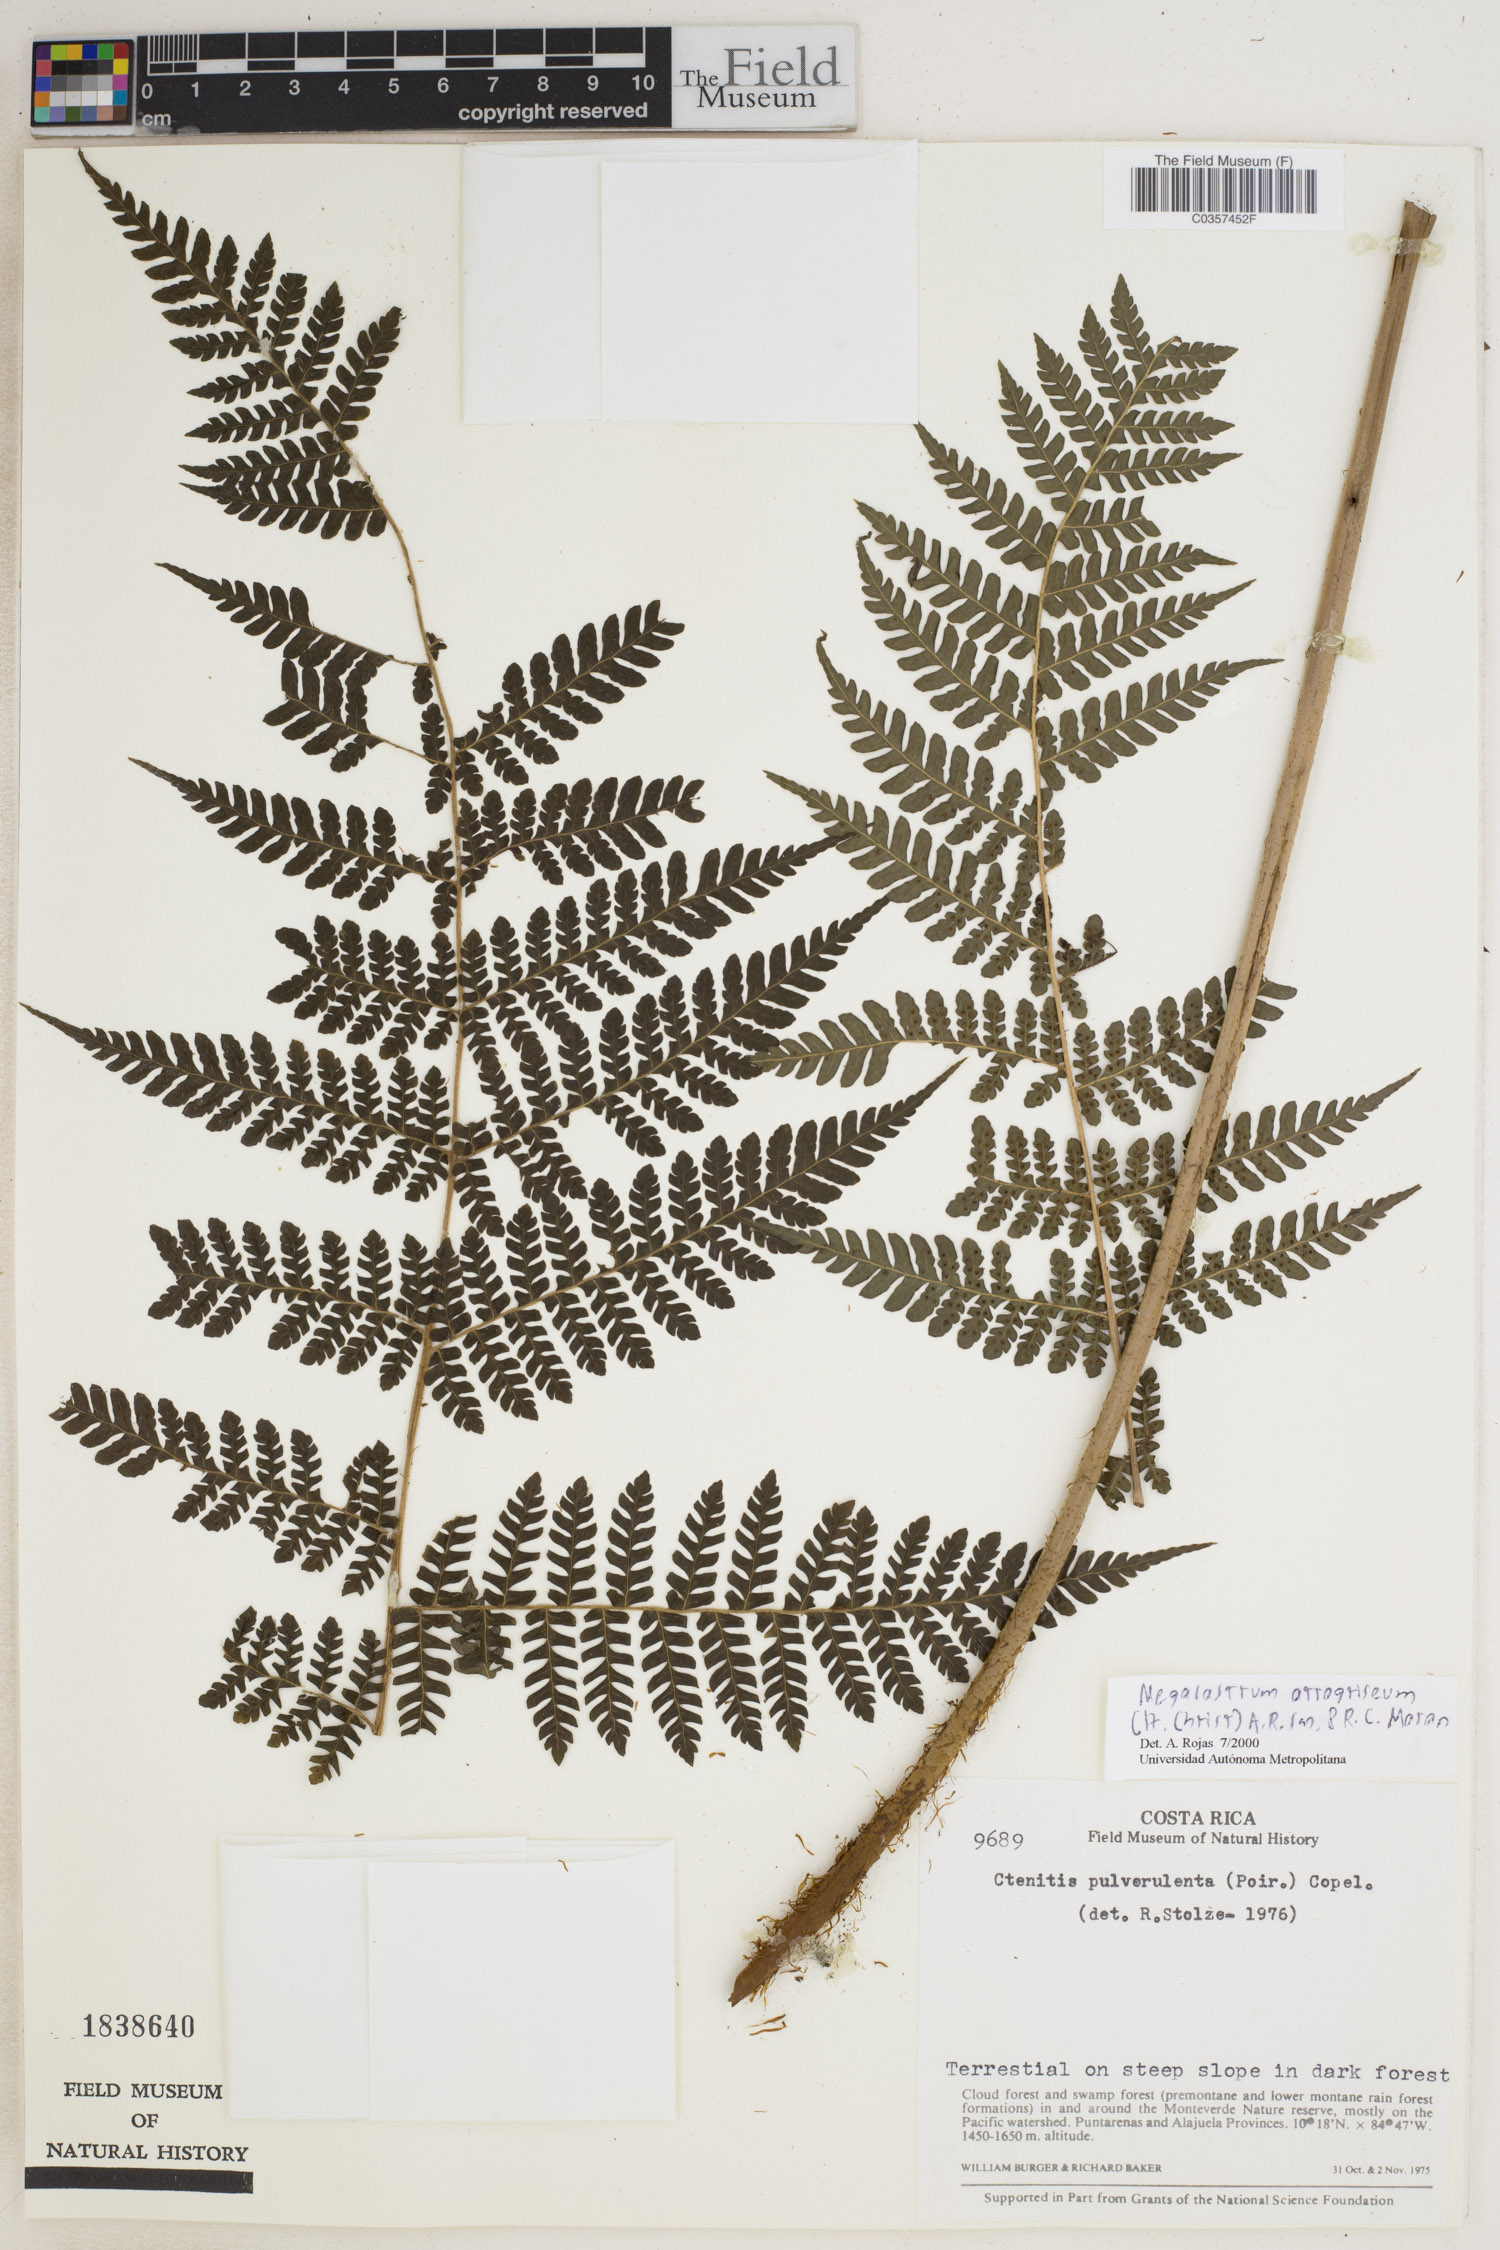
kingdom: Plantae
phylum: Tracheophyta
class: Polypodiopsida
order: Polypodiales
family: Dryopteridaceae
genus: Megalastrum
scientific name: Megalastrum atrogriseum
